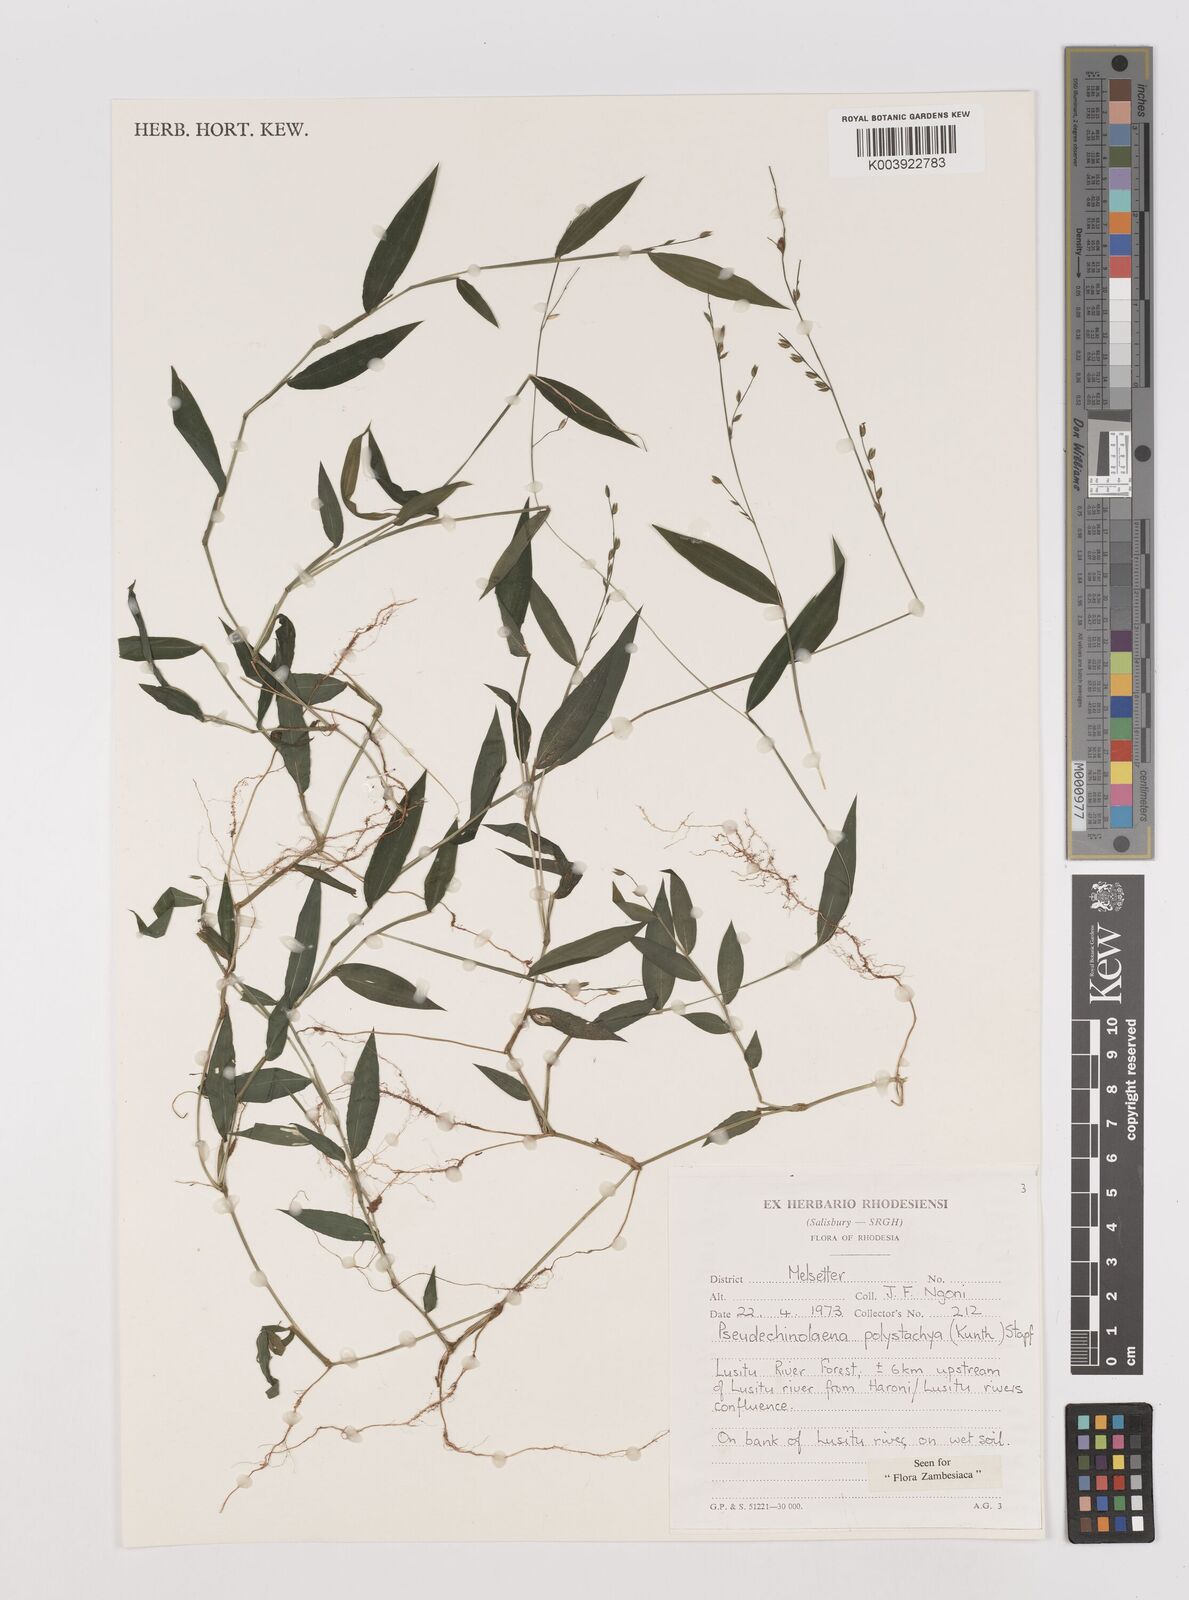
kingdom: Plantae
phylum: Tracheophyta
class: Liliopsida
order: Poales
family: Poaceae
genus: Pseudechinolaena
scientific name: Pseudechinolaena polystachya
